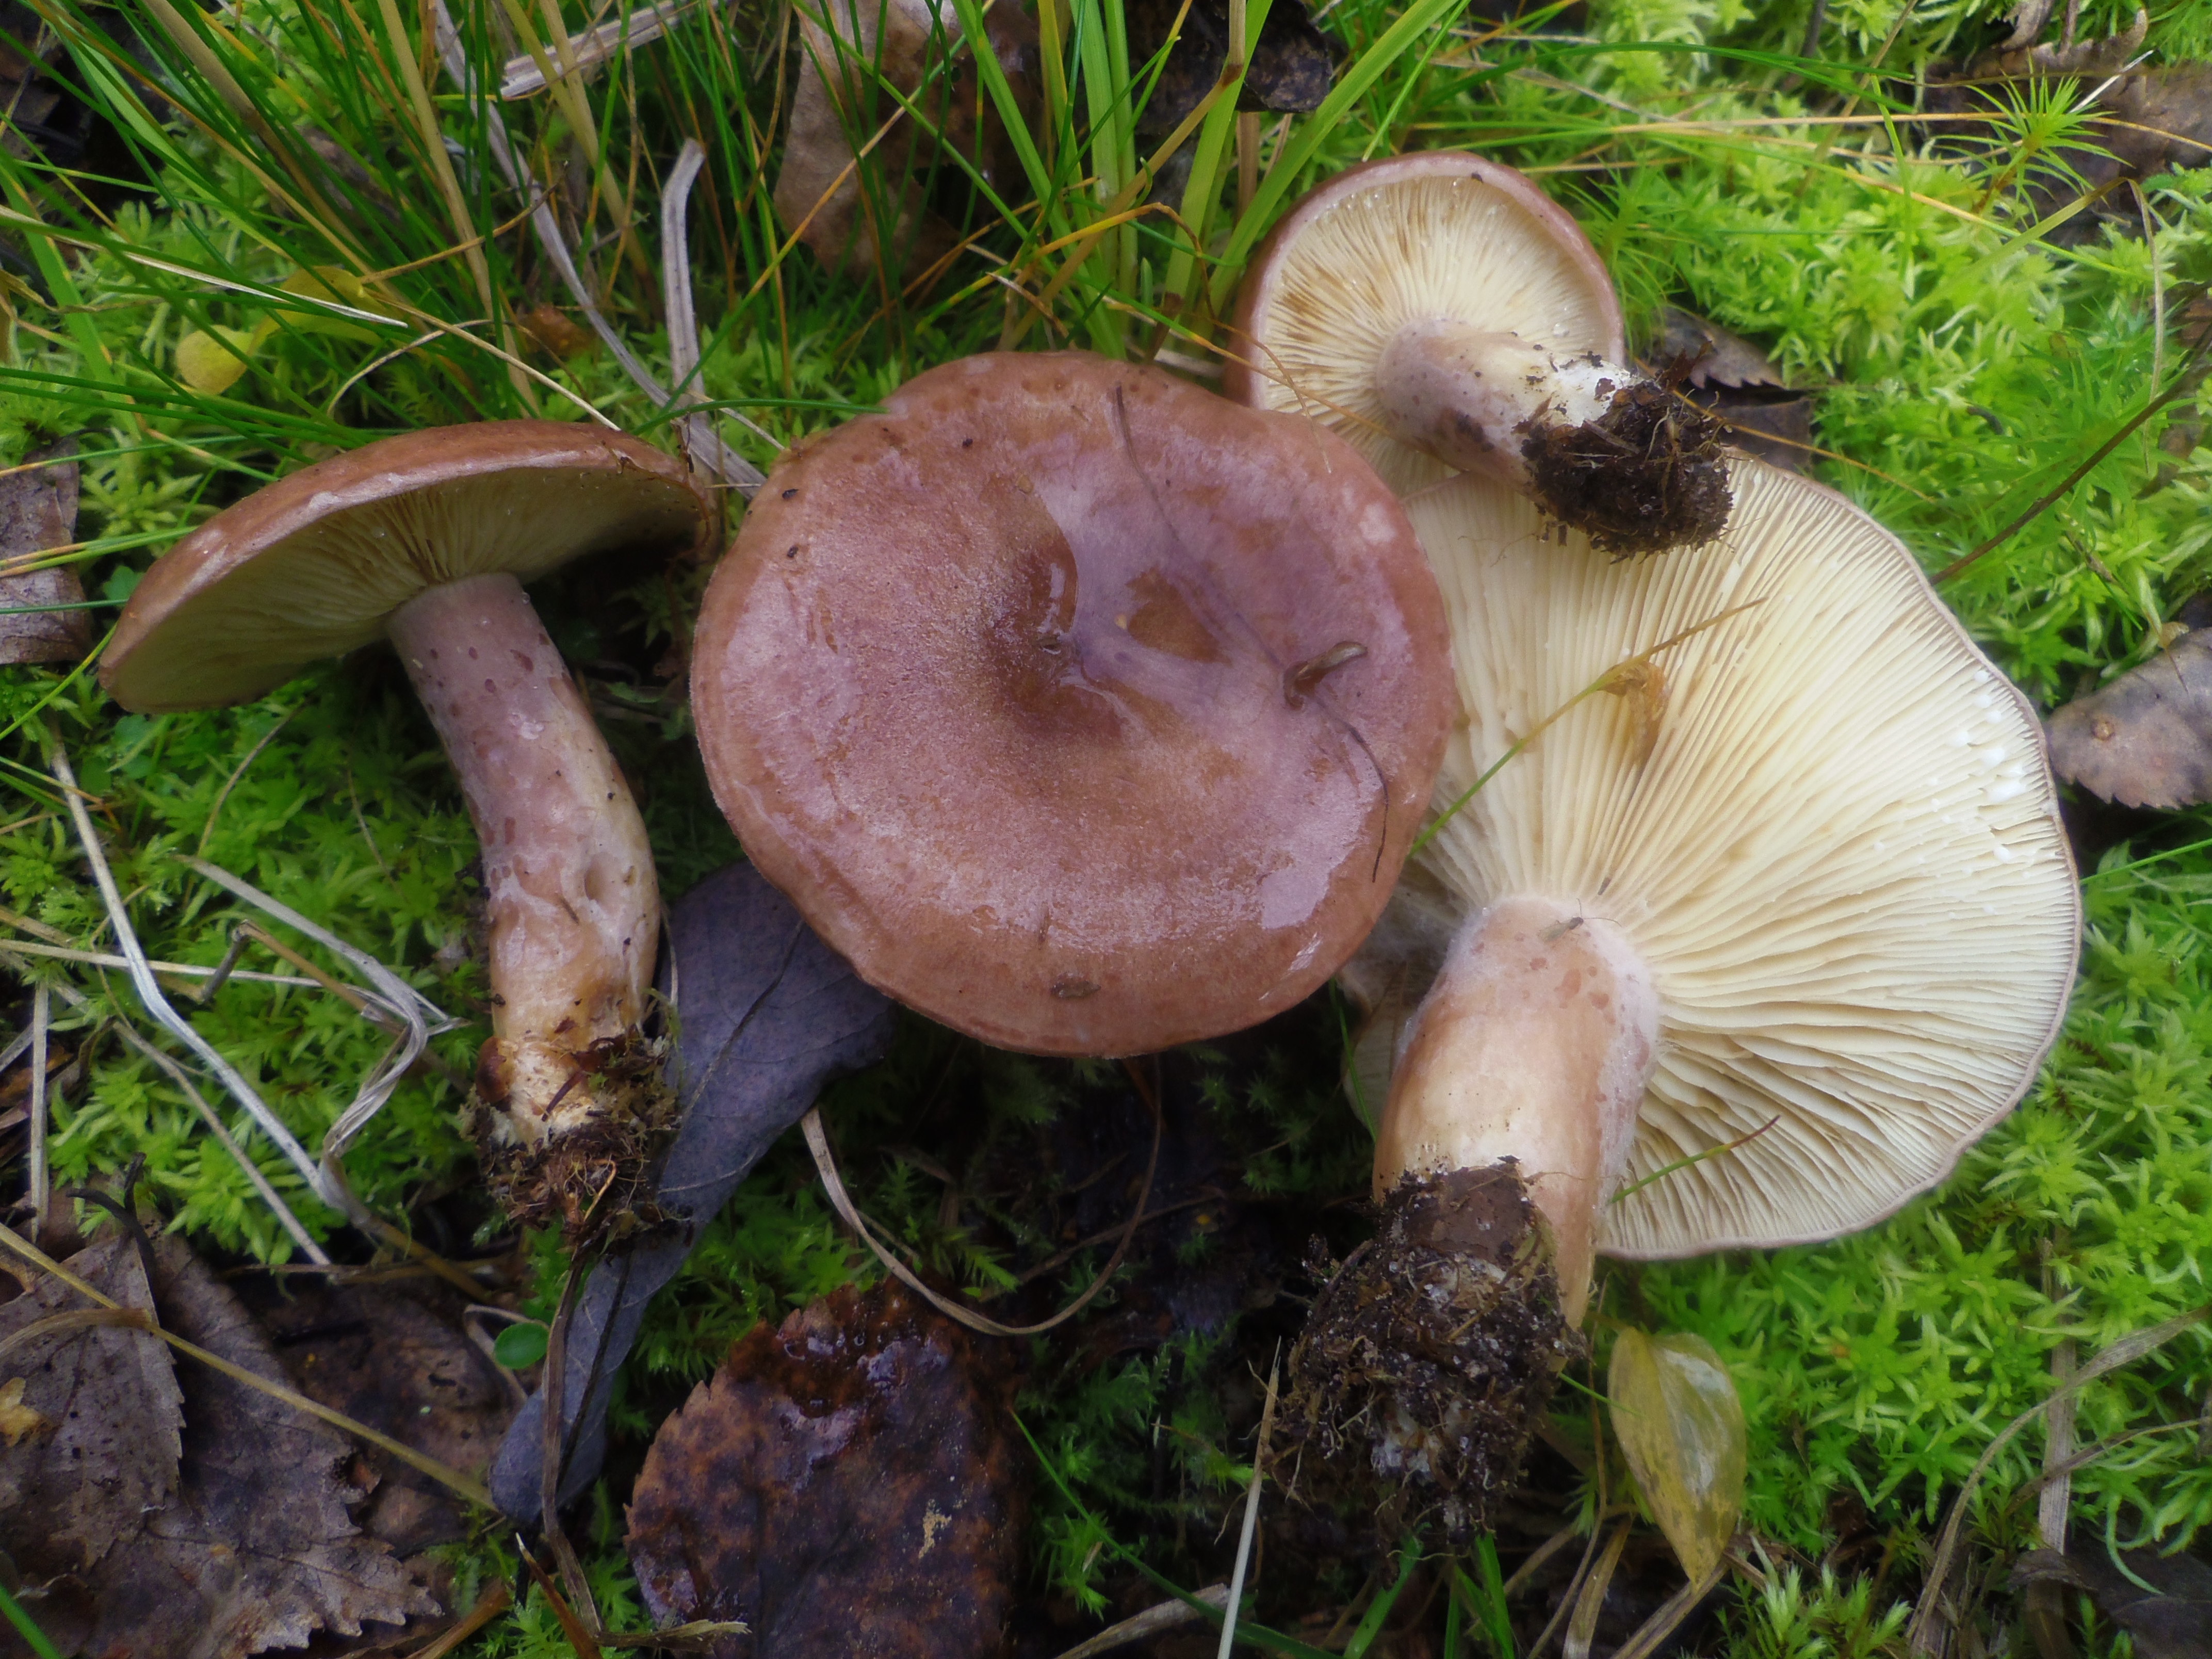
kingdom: Fungi
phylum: Basidiomycota
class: Agaricomycetes
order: Russulales
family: Russulaceae
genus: Lactarius
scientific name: Lactarius hysginus
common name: Dyed milkcap
